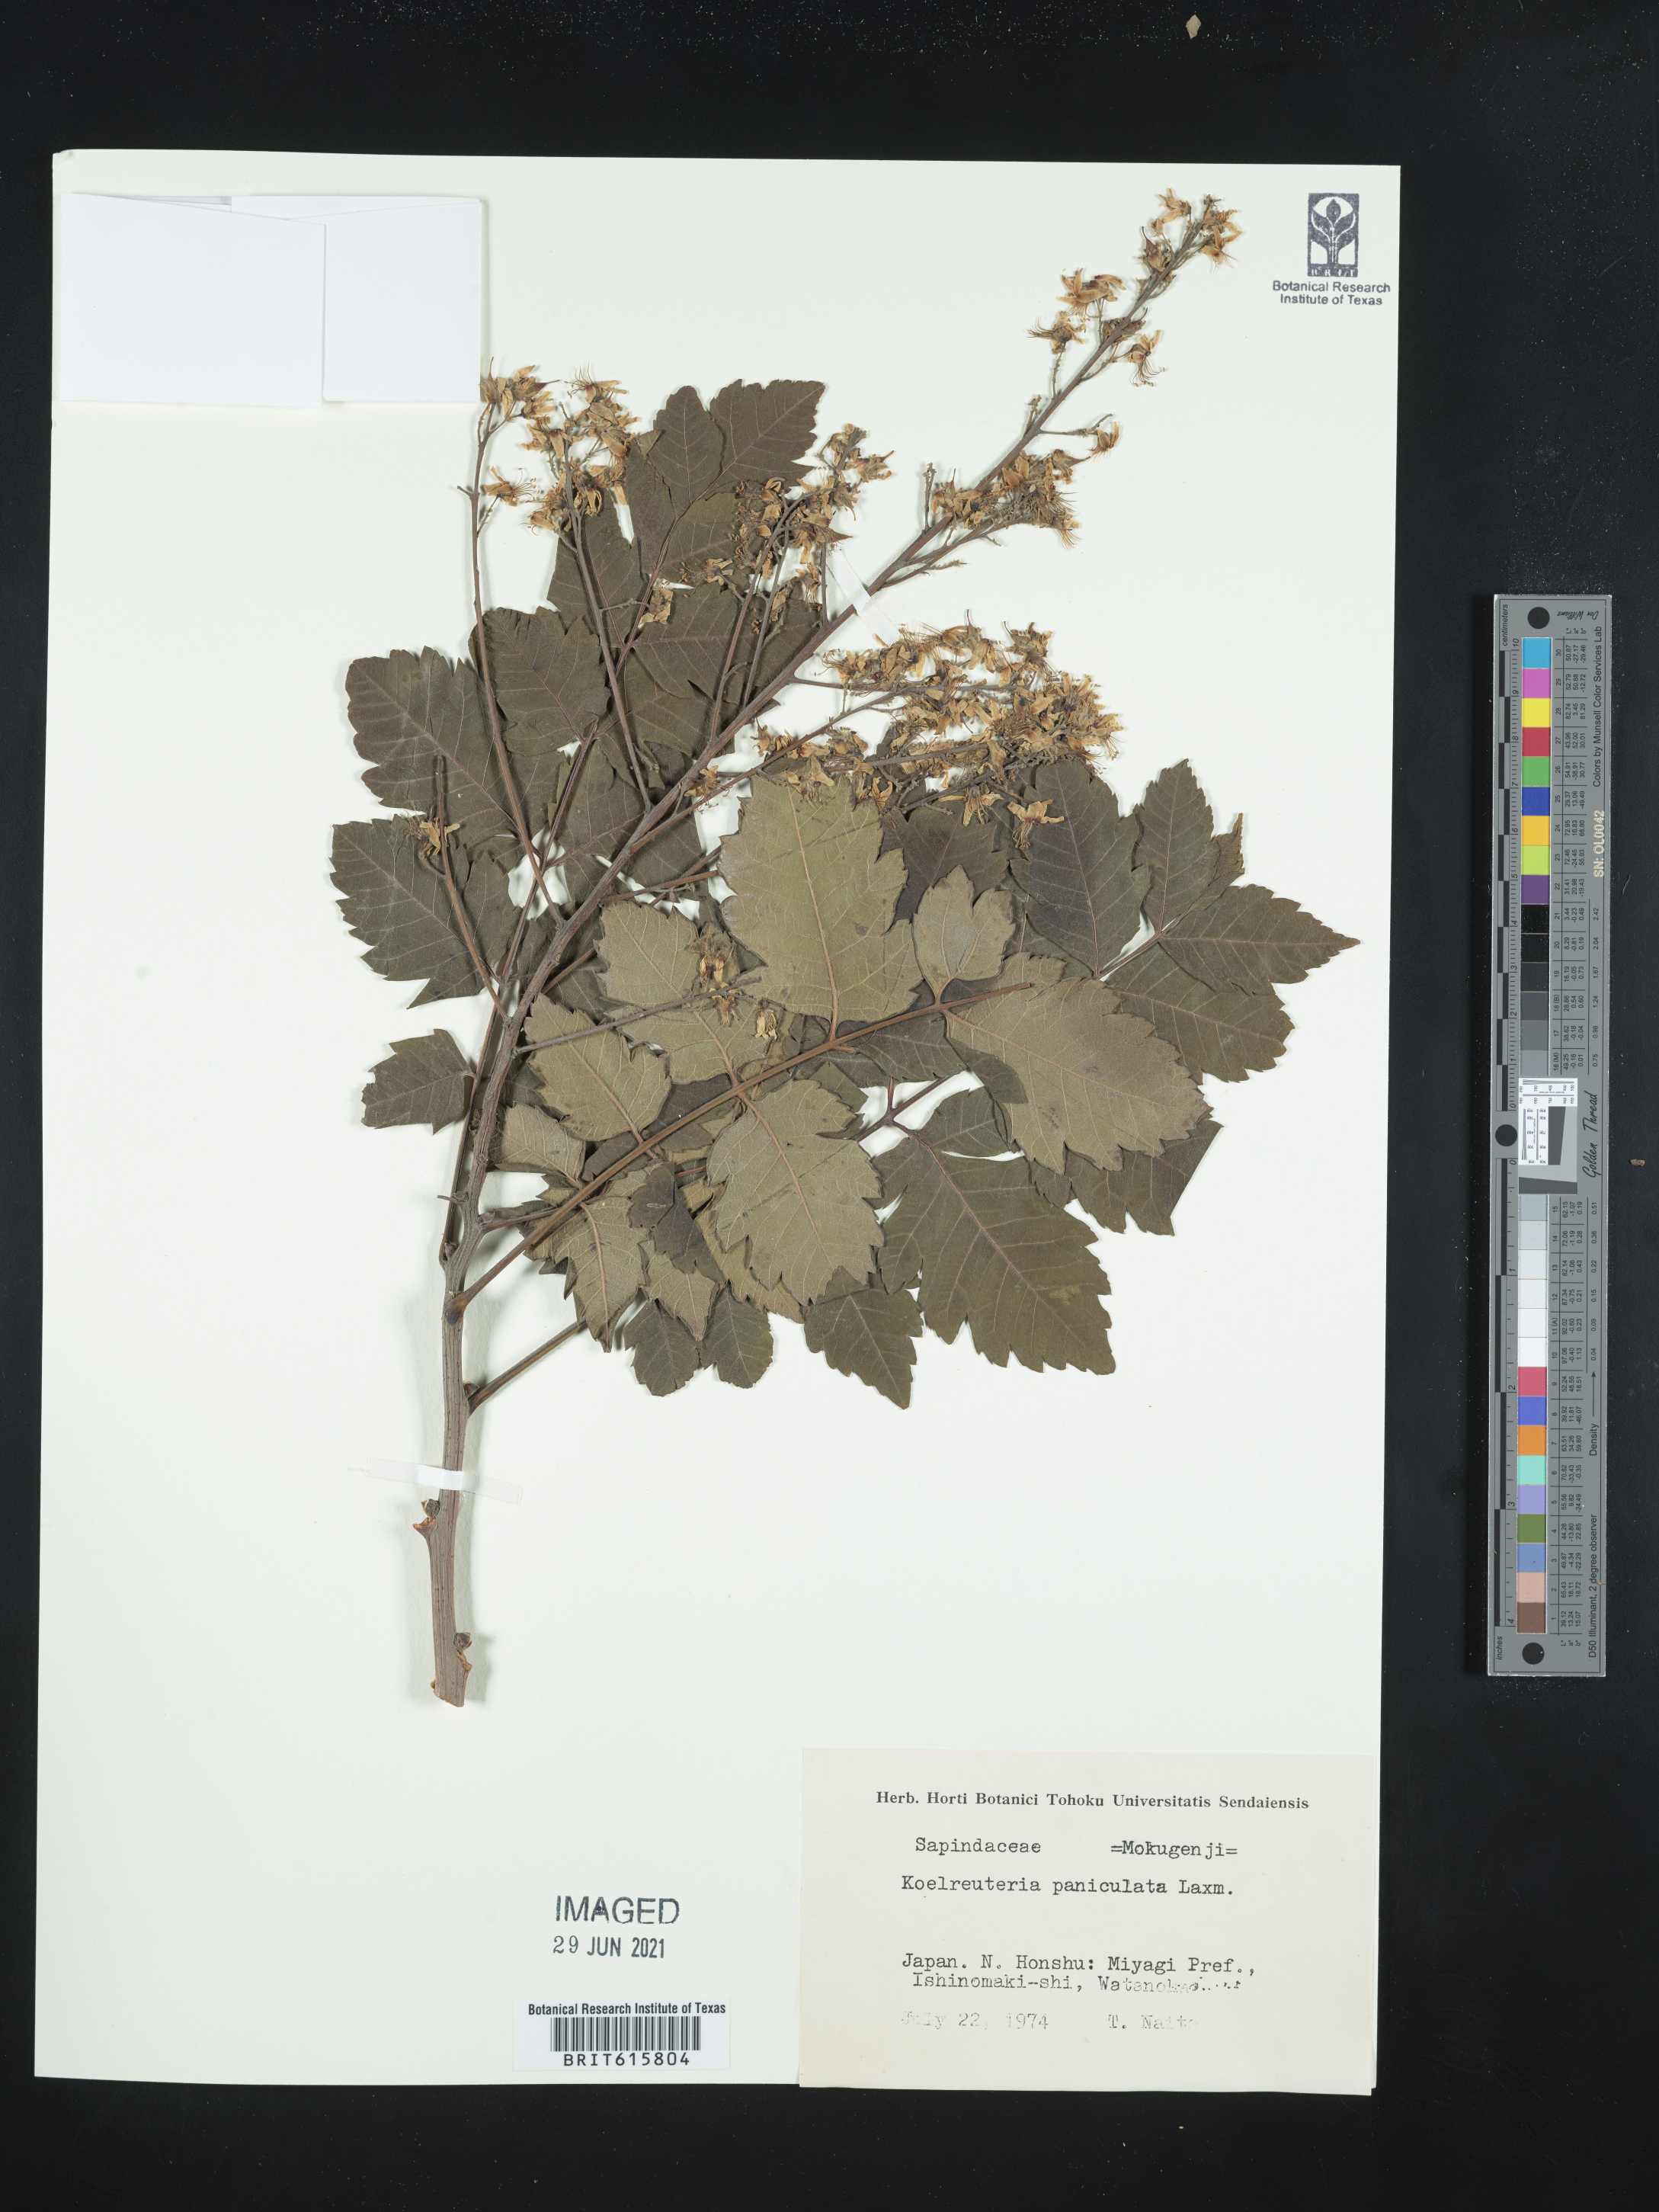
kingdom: Plantae
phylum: Tracheophyta
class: Magnoliopsida
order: Sapindales
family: Sapindaceae
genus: Koelreuteria
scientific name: Koelreuteria paniculata
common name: Pride-of-india
